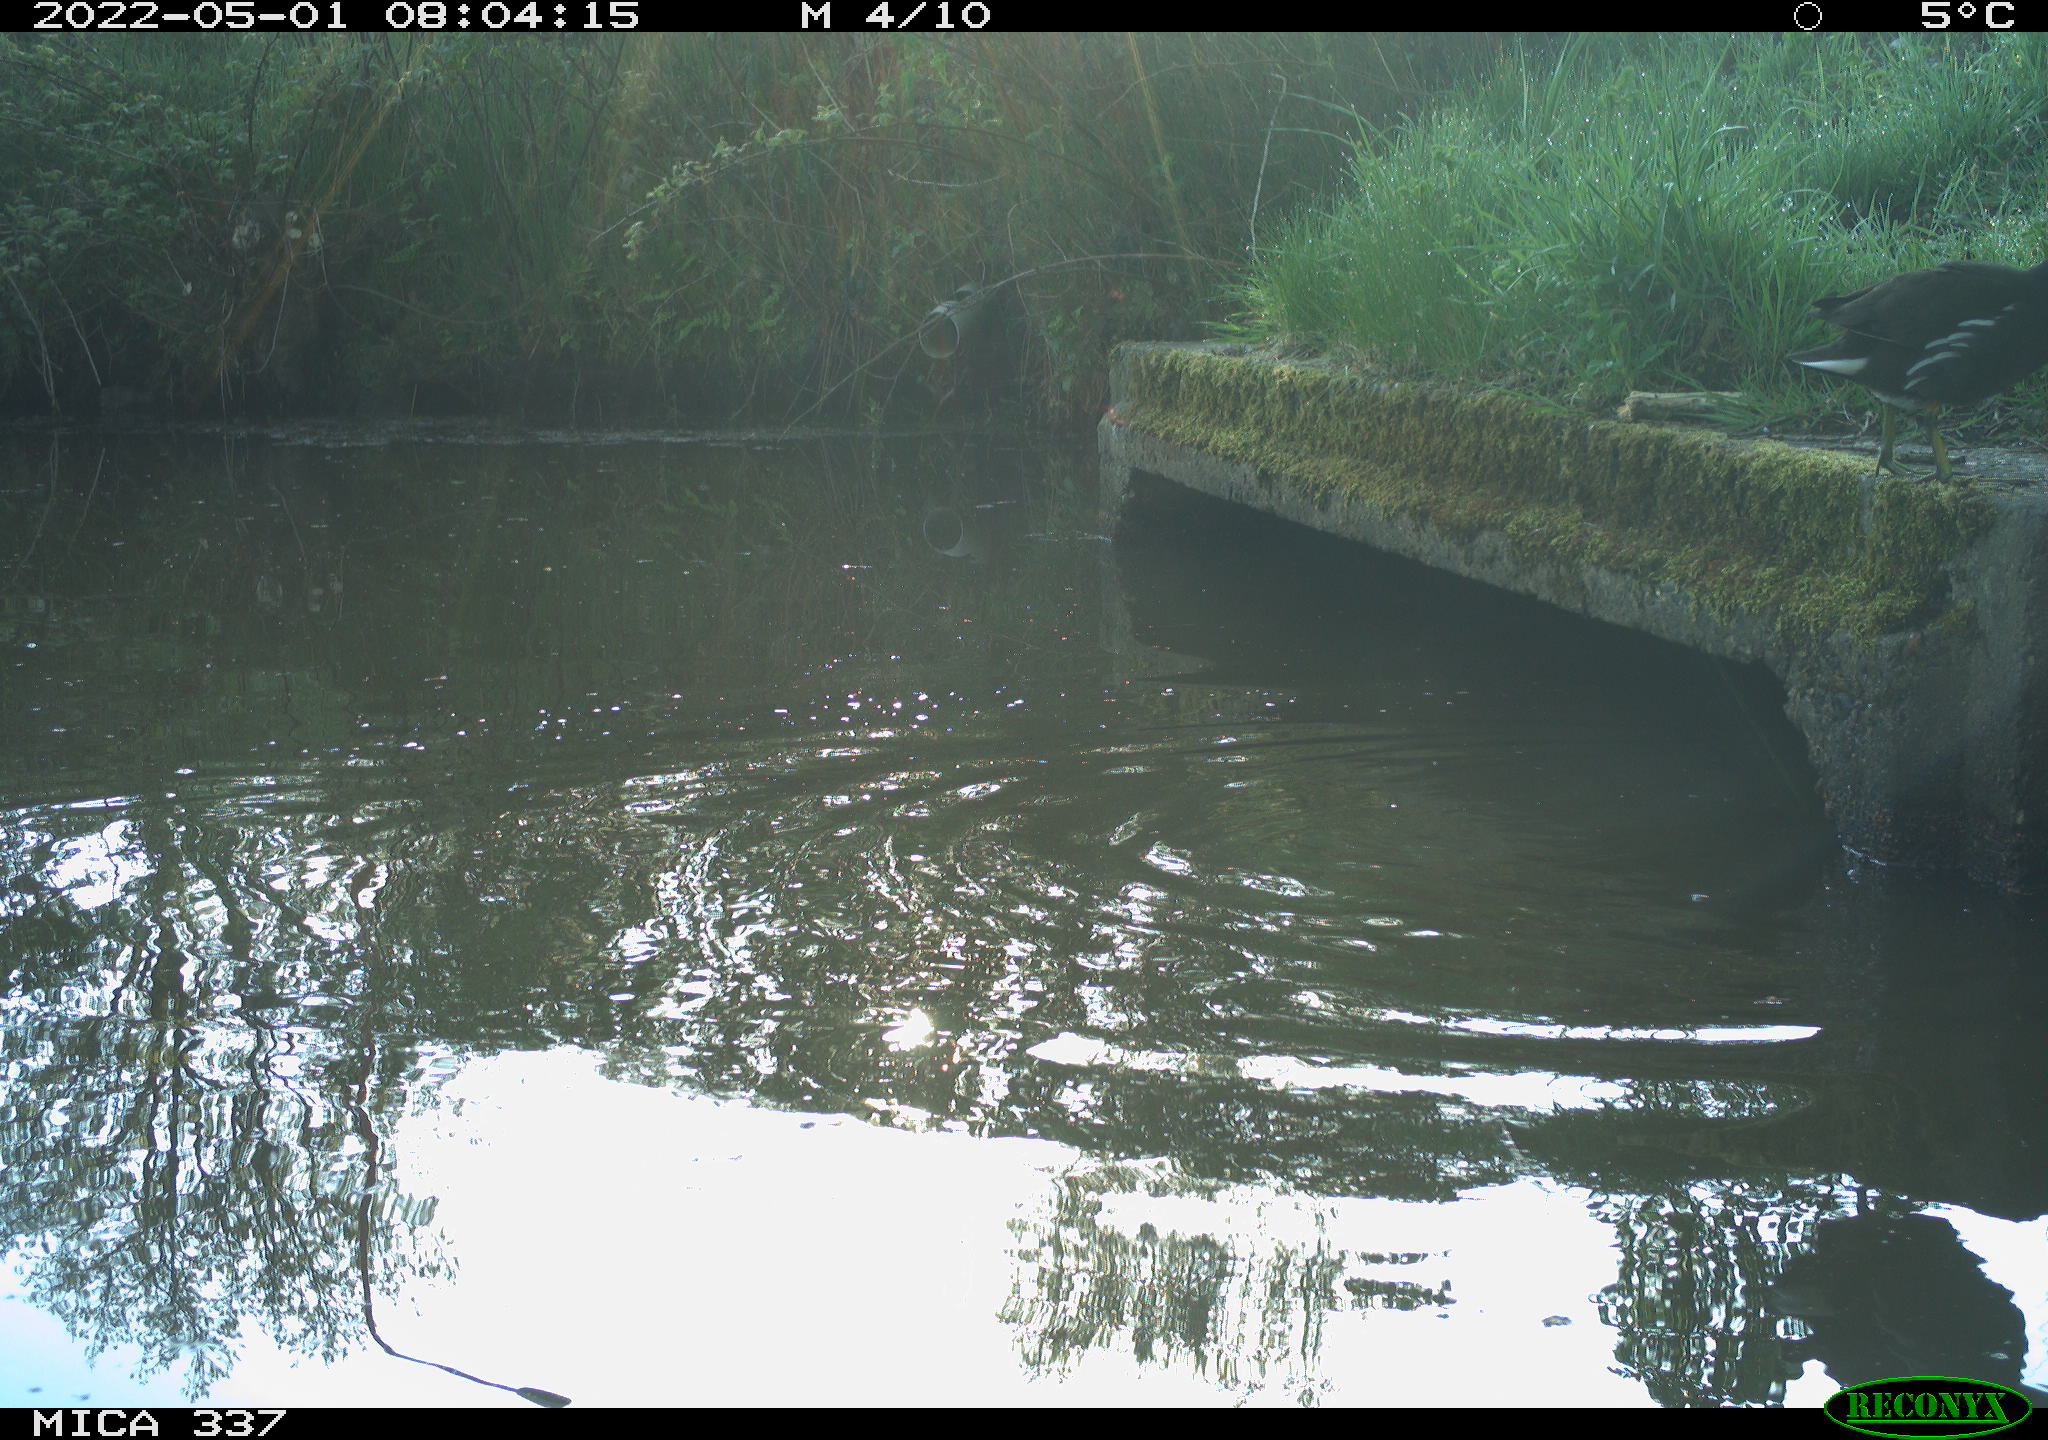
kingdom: Animalia
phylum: Chordata
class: Aves
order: Gruiformes
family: Rallidae
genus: Gallinula
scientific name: Gallinula chloropus
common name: Common moorhen
